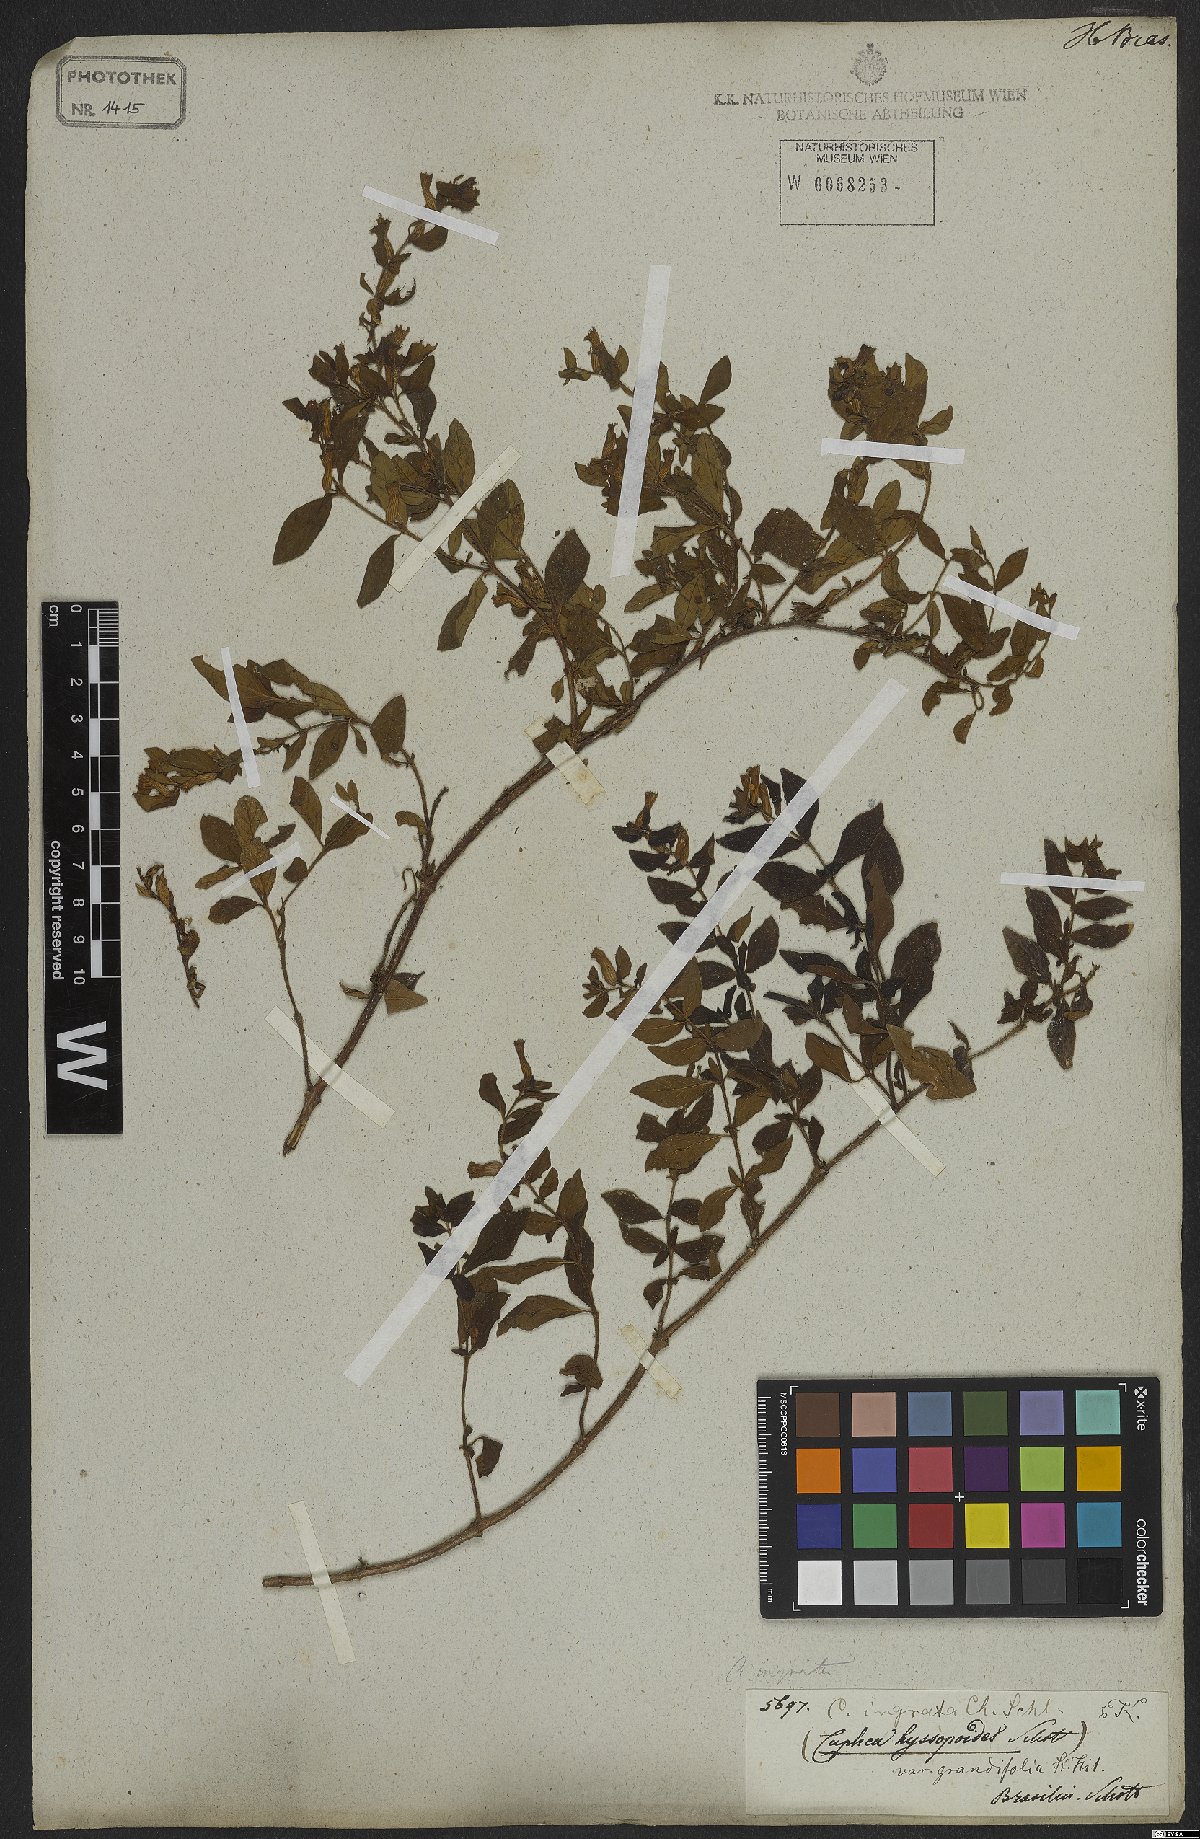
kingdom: Plantae
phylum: Tracheophyta
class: Magnoliopsida
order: Myrtales
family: Lythraceae
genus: Cuphea
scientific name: Cuphea ingrata
